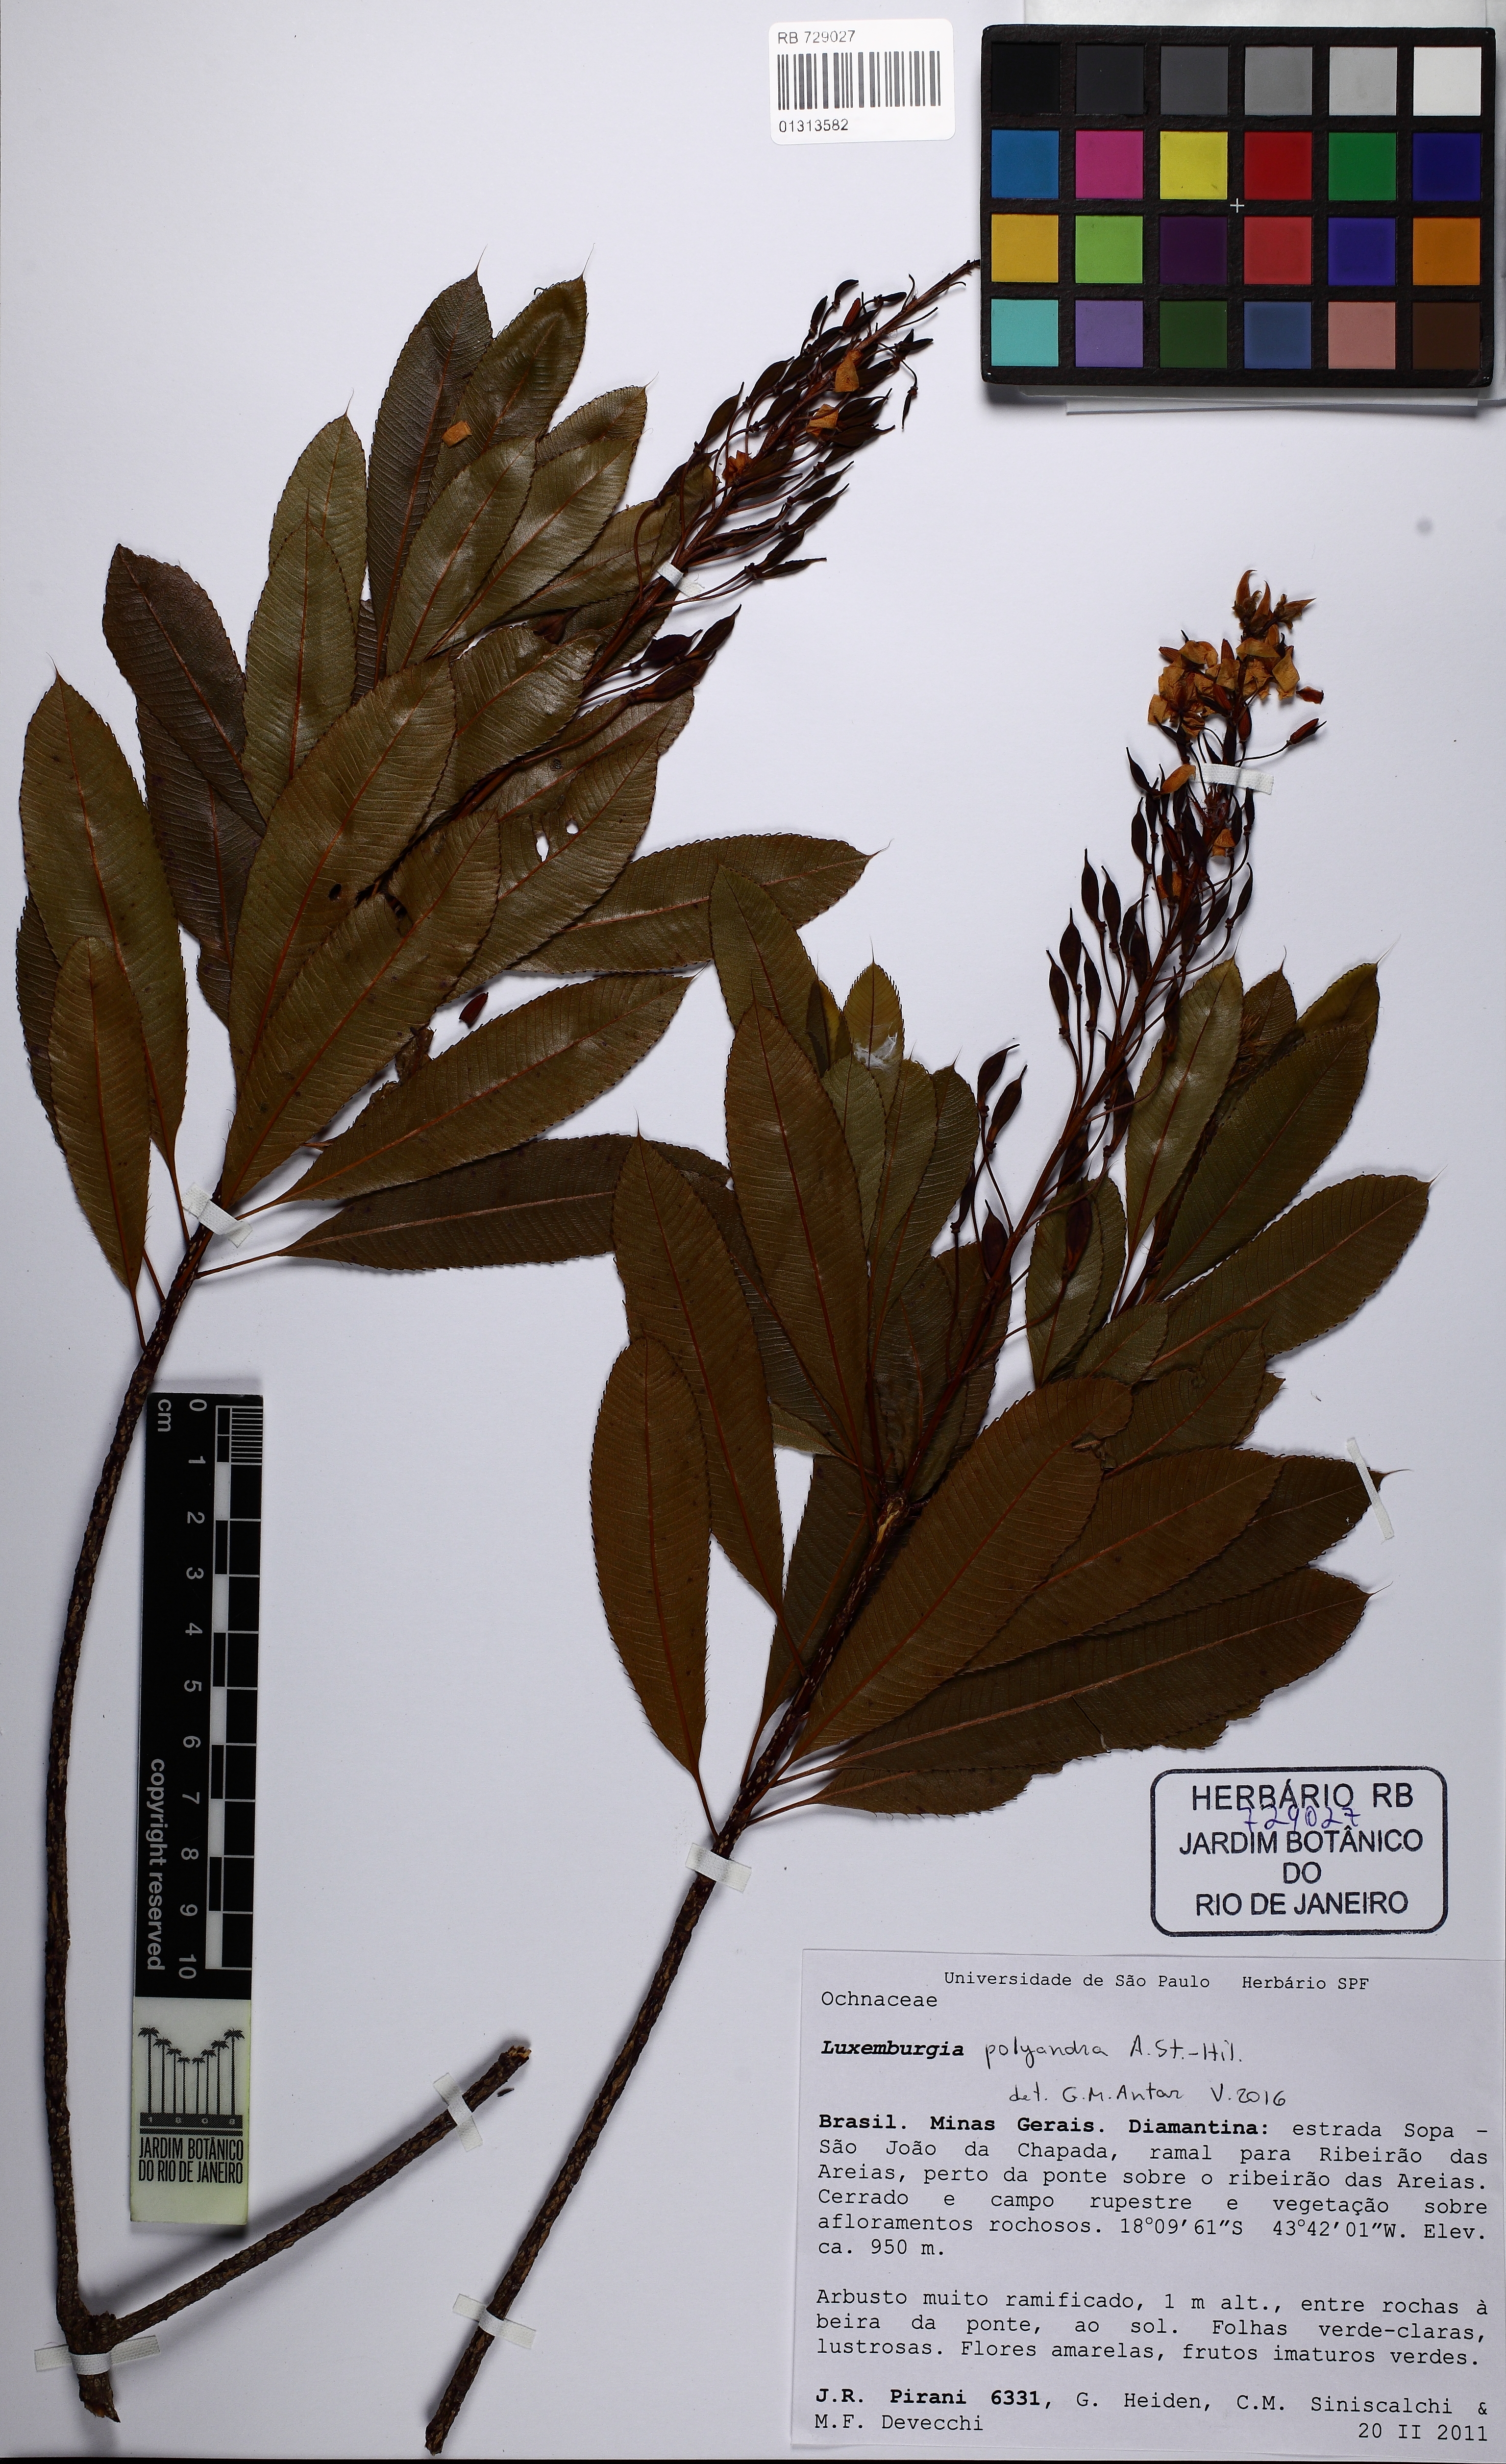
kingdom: Plantae
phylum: Tracheophyta
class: Magnoliopsida
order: Malpighiales
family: Ochnaceae
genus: Luxemburgia
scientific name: Luxemburgia polyandra
